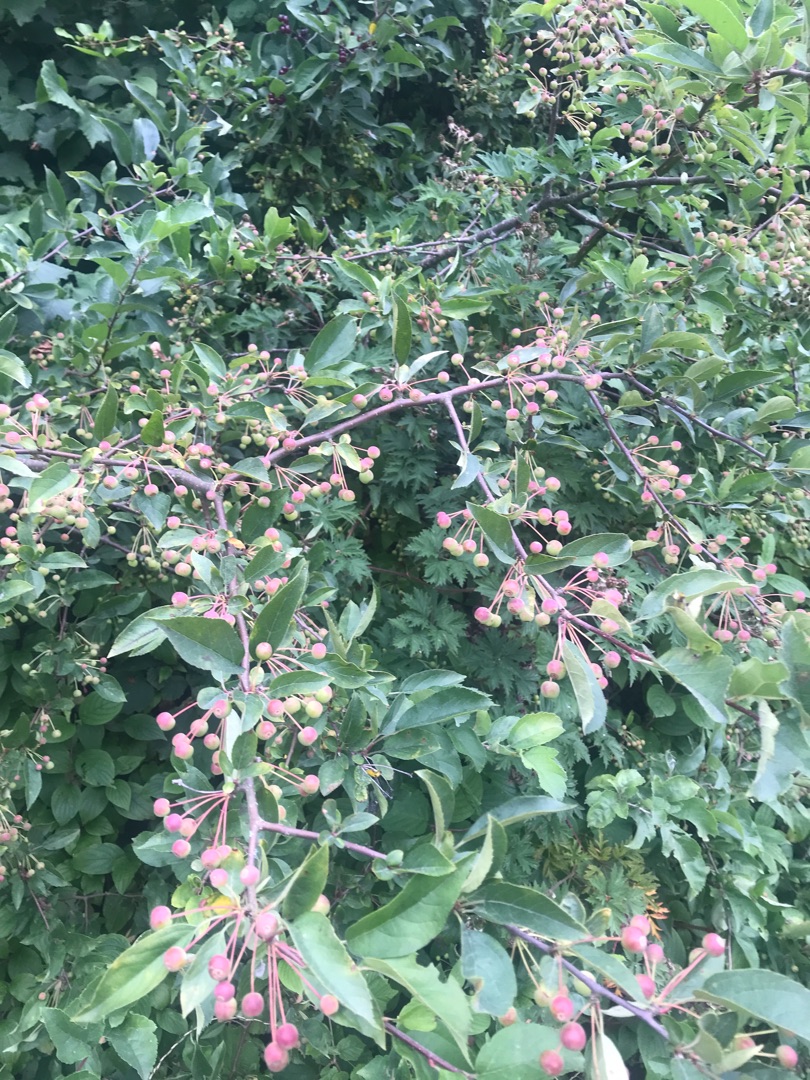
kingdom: Plantae
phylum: Tracheophyta
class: Magnoliopsida
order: Rosales
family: Rosaceae
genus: Malus
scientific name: Malus toringo
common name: Sargents-æble
